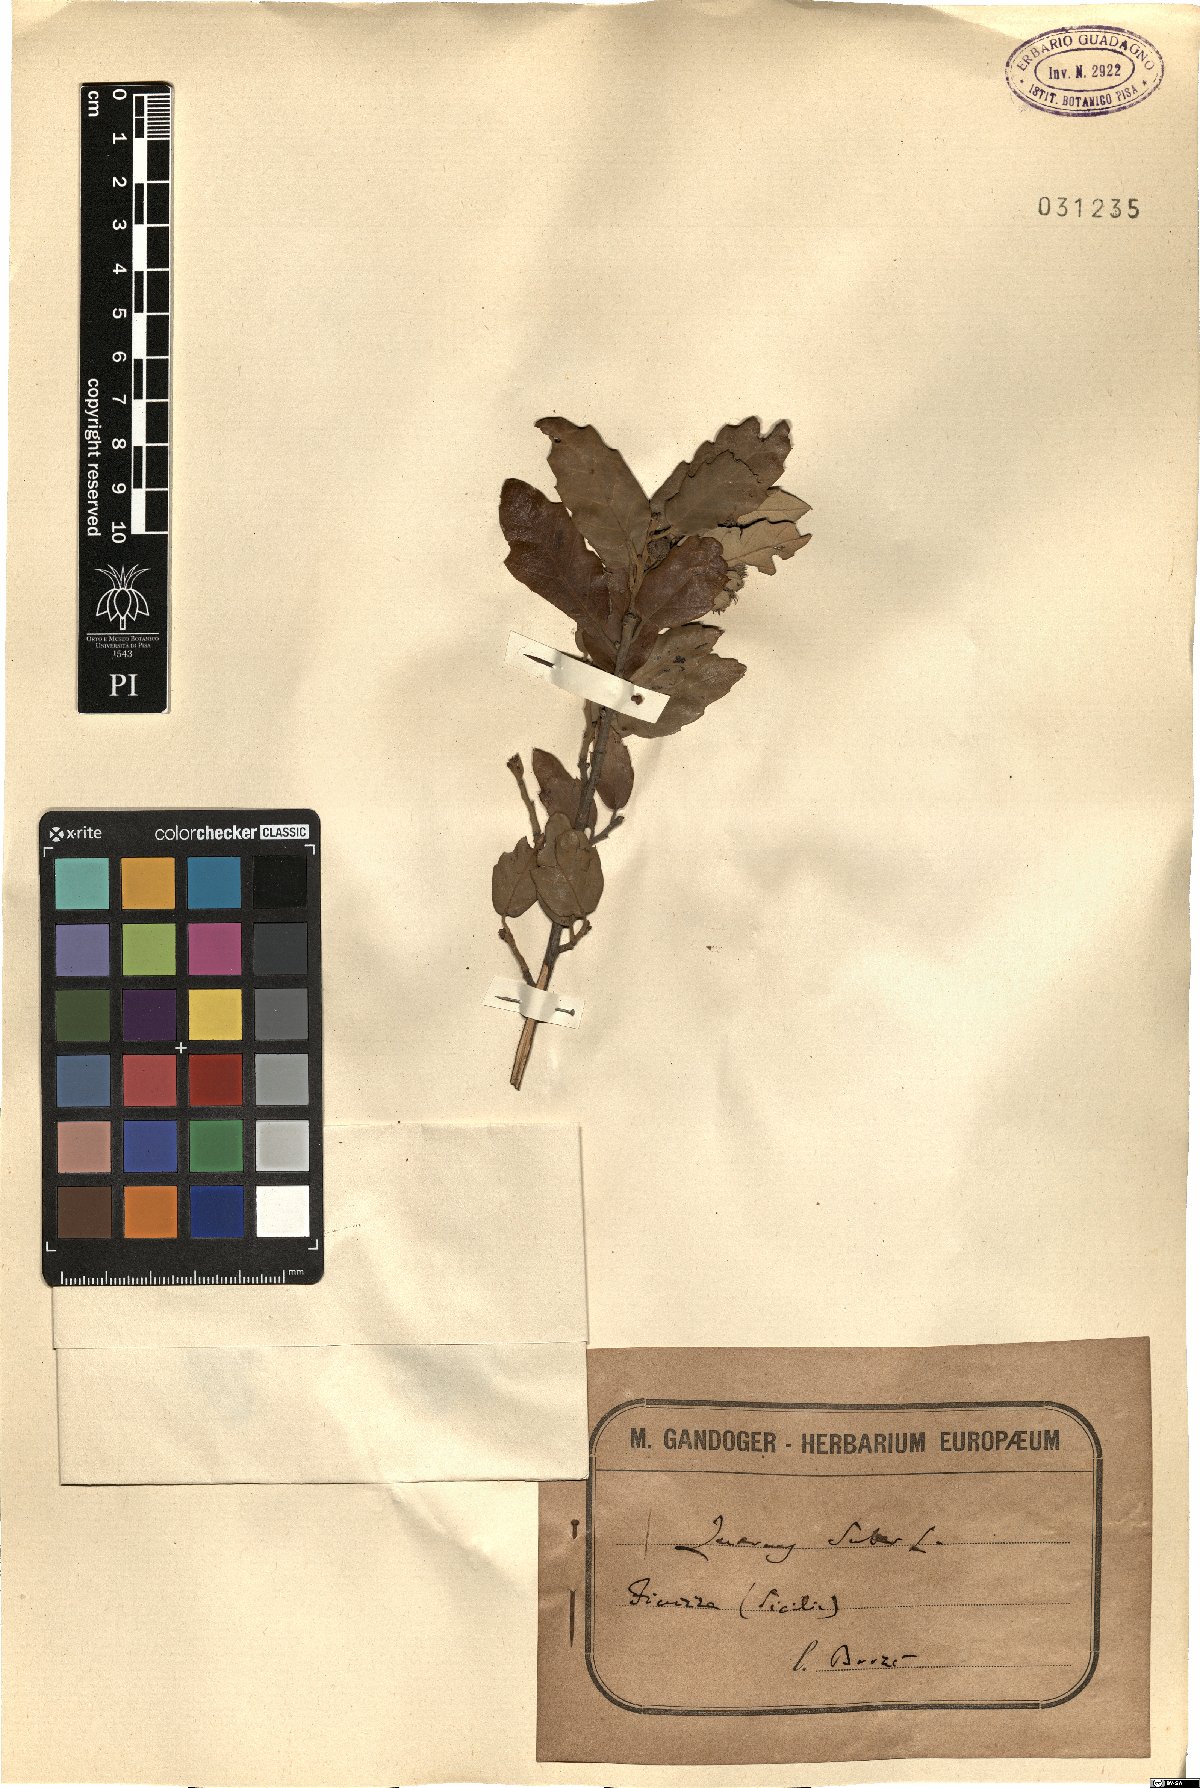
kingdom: Plantae
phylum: Tracheophyta
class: Magnoliopsida
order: Fagales
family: Fagaceae
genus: Quercus
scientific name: Quercus suber
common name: Cork oak
